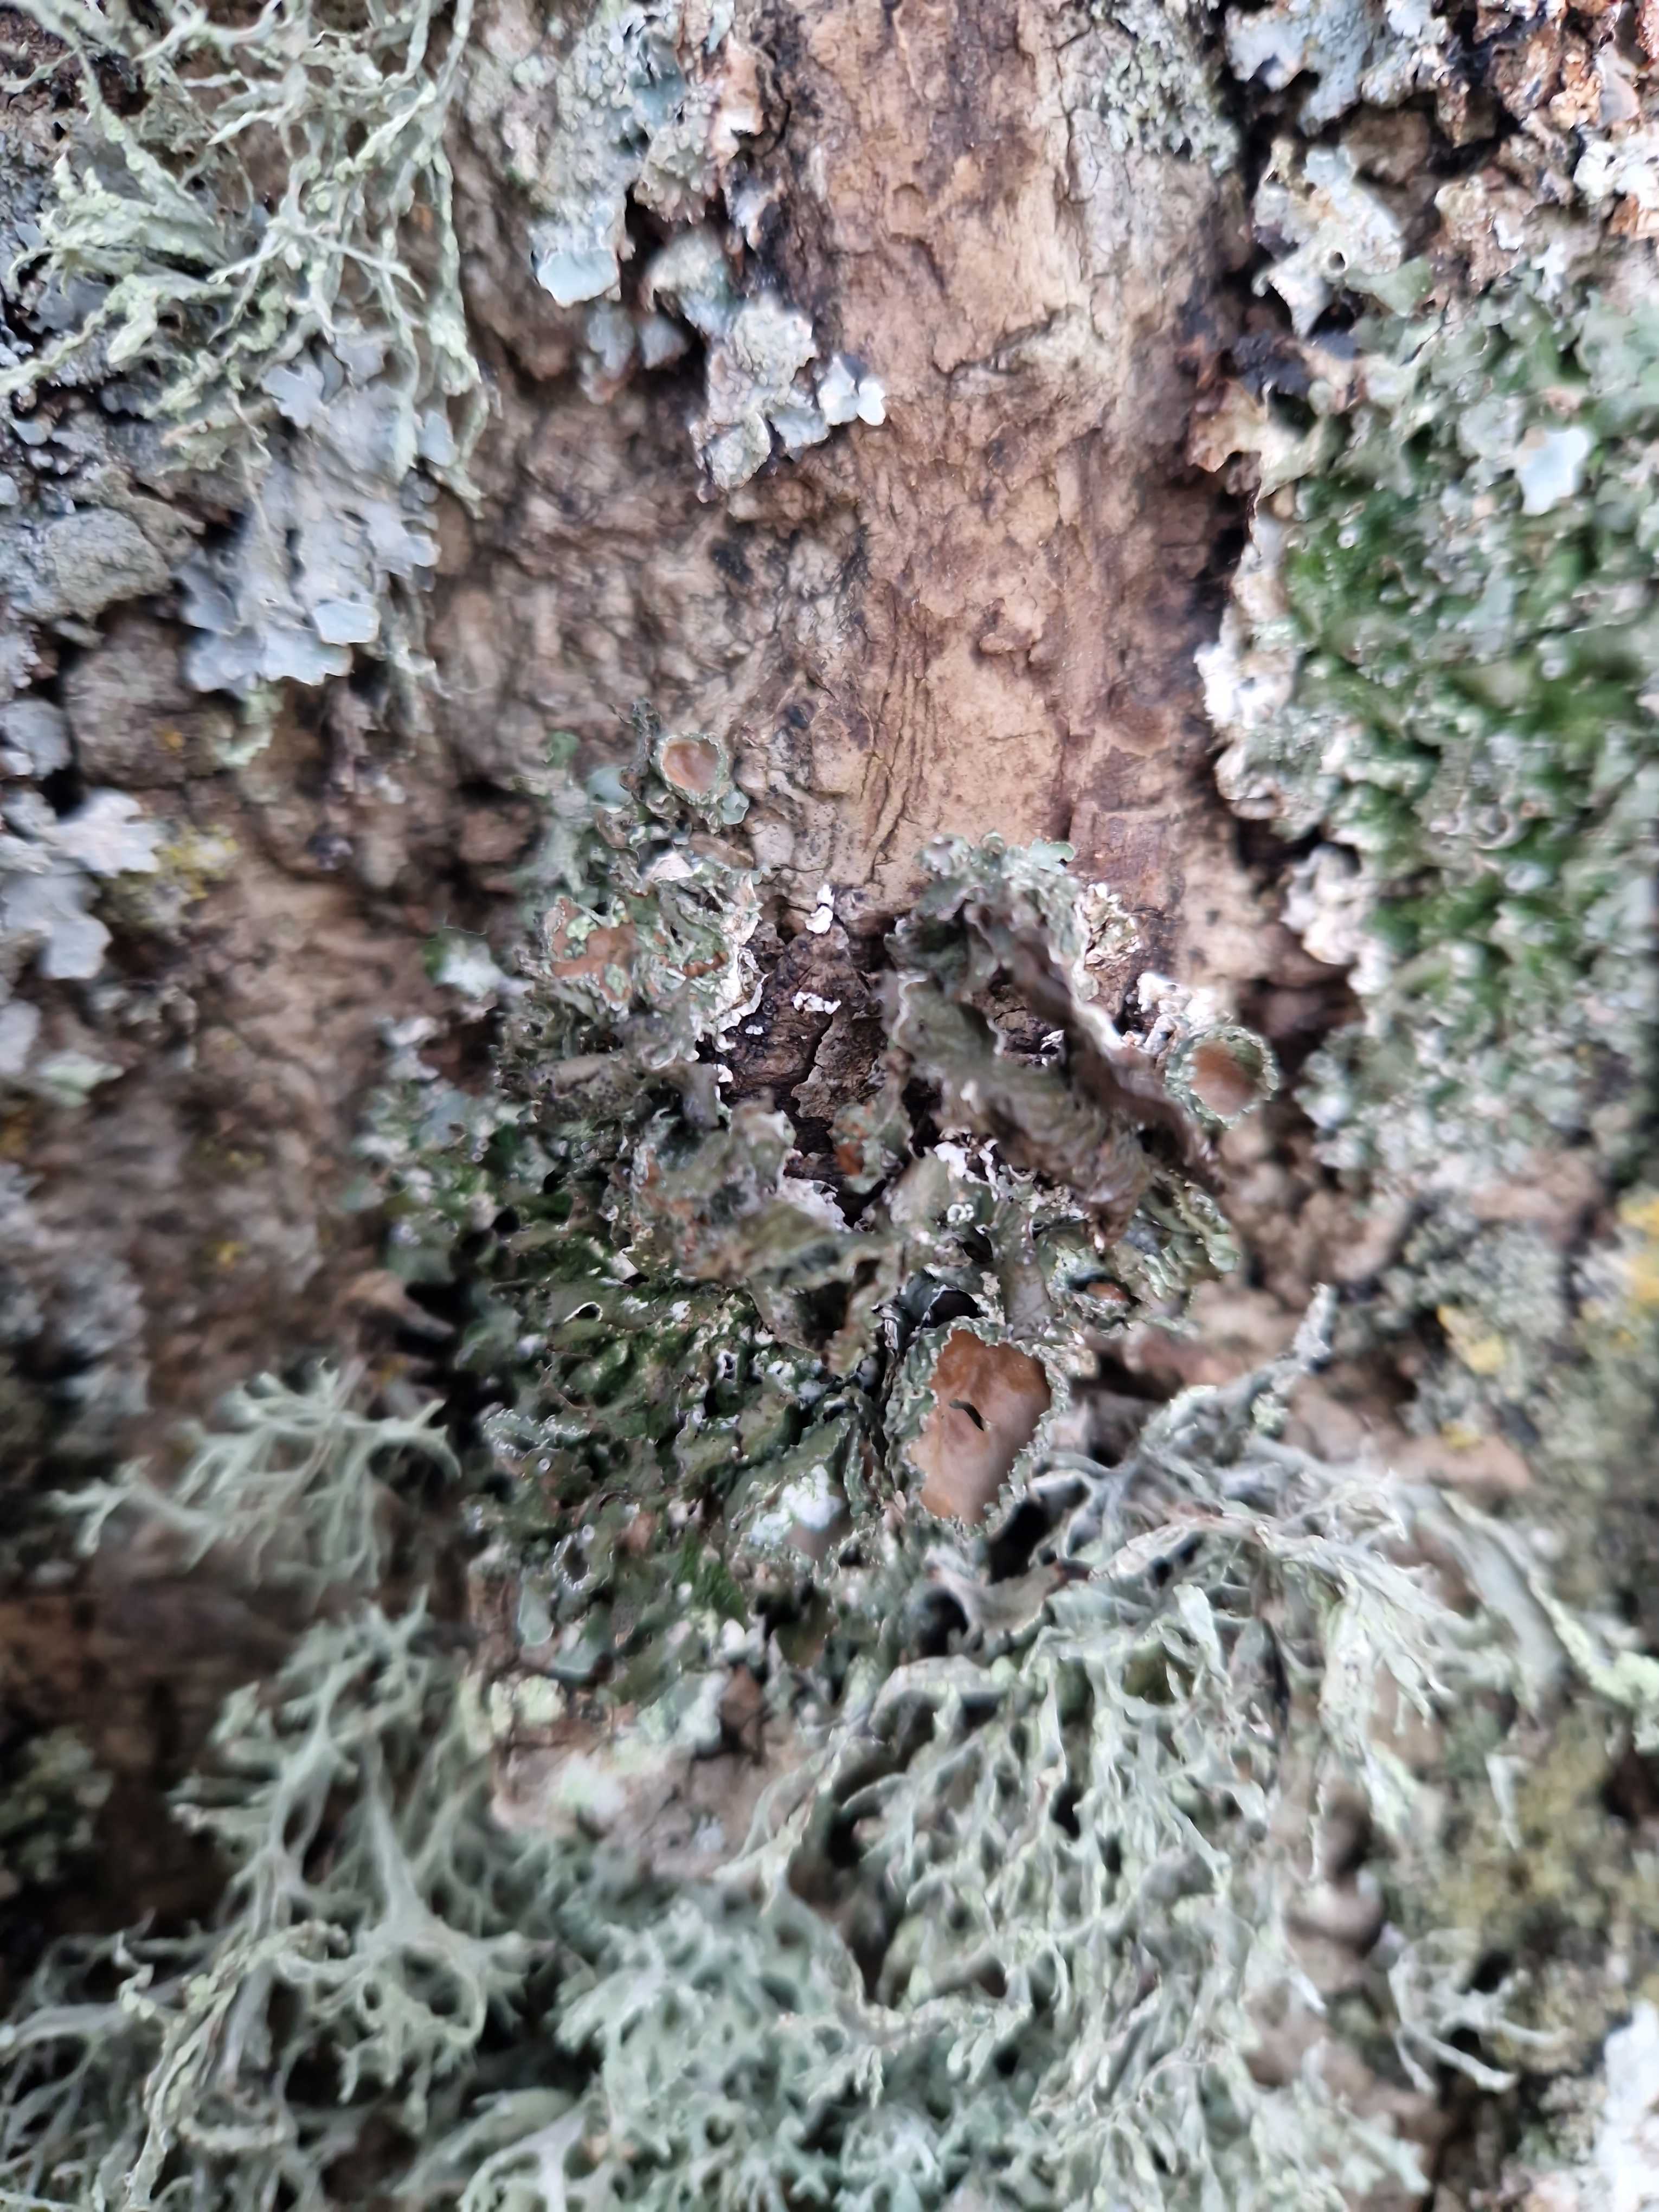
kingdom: Fungi
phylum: Ascomycota
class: Lecanoromycetes
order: Lecanorales
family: Parmeliaceae
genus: Pleurosticta
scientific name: Pleurosticta acetabulum
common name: stor skållav
